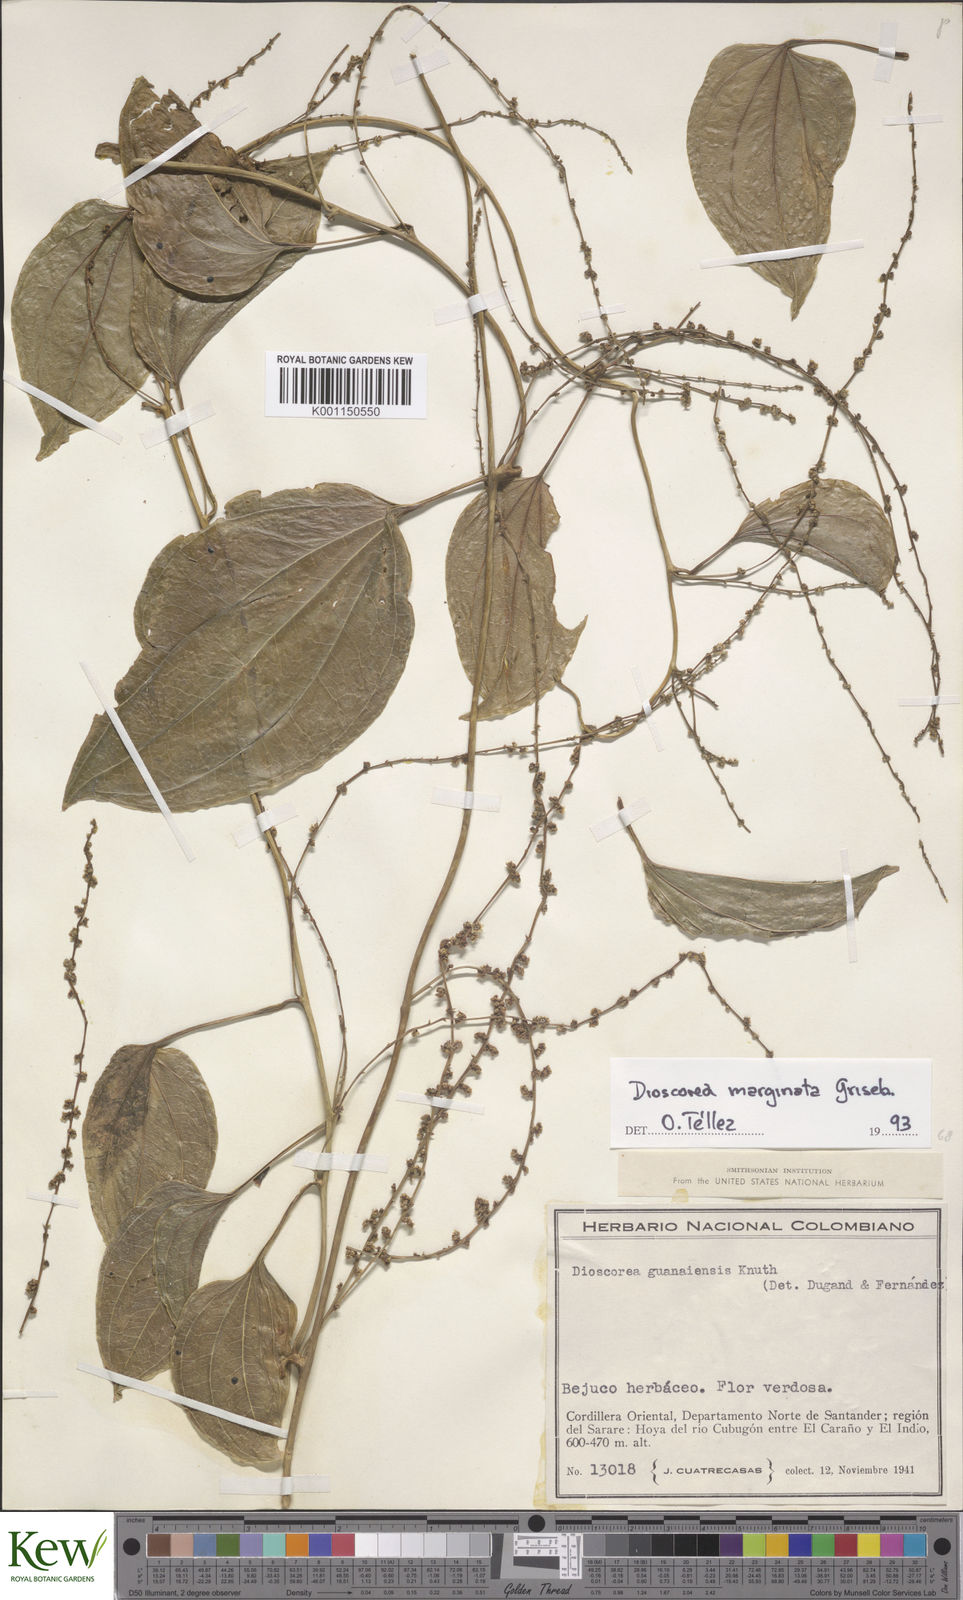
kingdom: Plantae
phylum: Tracheophyta
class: Liliopsida
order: Dioscoreales
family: Dioscoreaceae
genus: Dioscorea
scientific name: Dioscorea acanthogene
